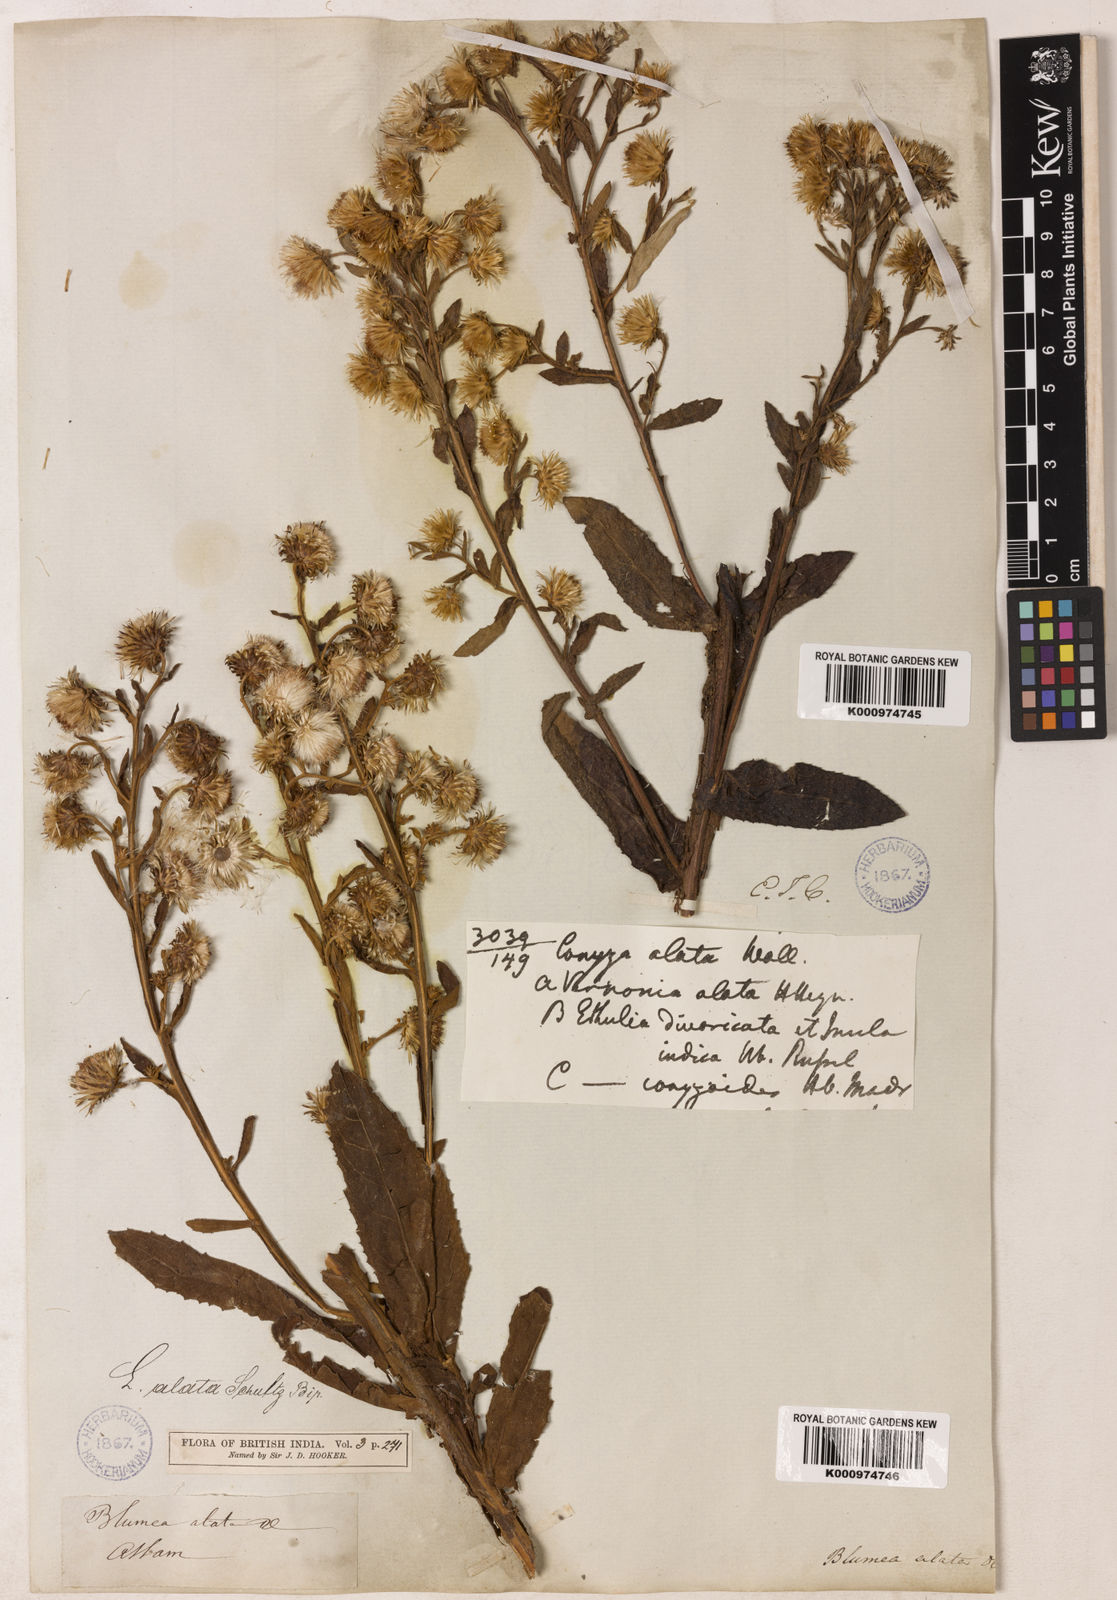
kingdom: Plantae
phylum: Tracheophyta
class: Magnoliopsida
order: Asterales
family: Asteraceae
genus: Laggera
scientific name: Laggera alata
